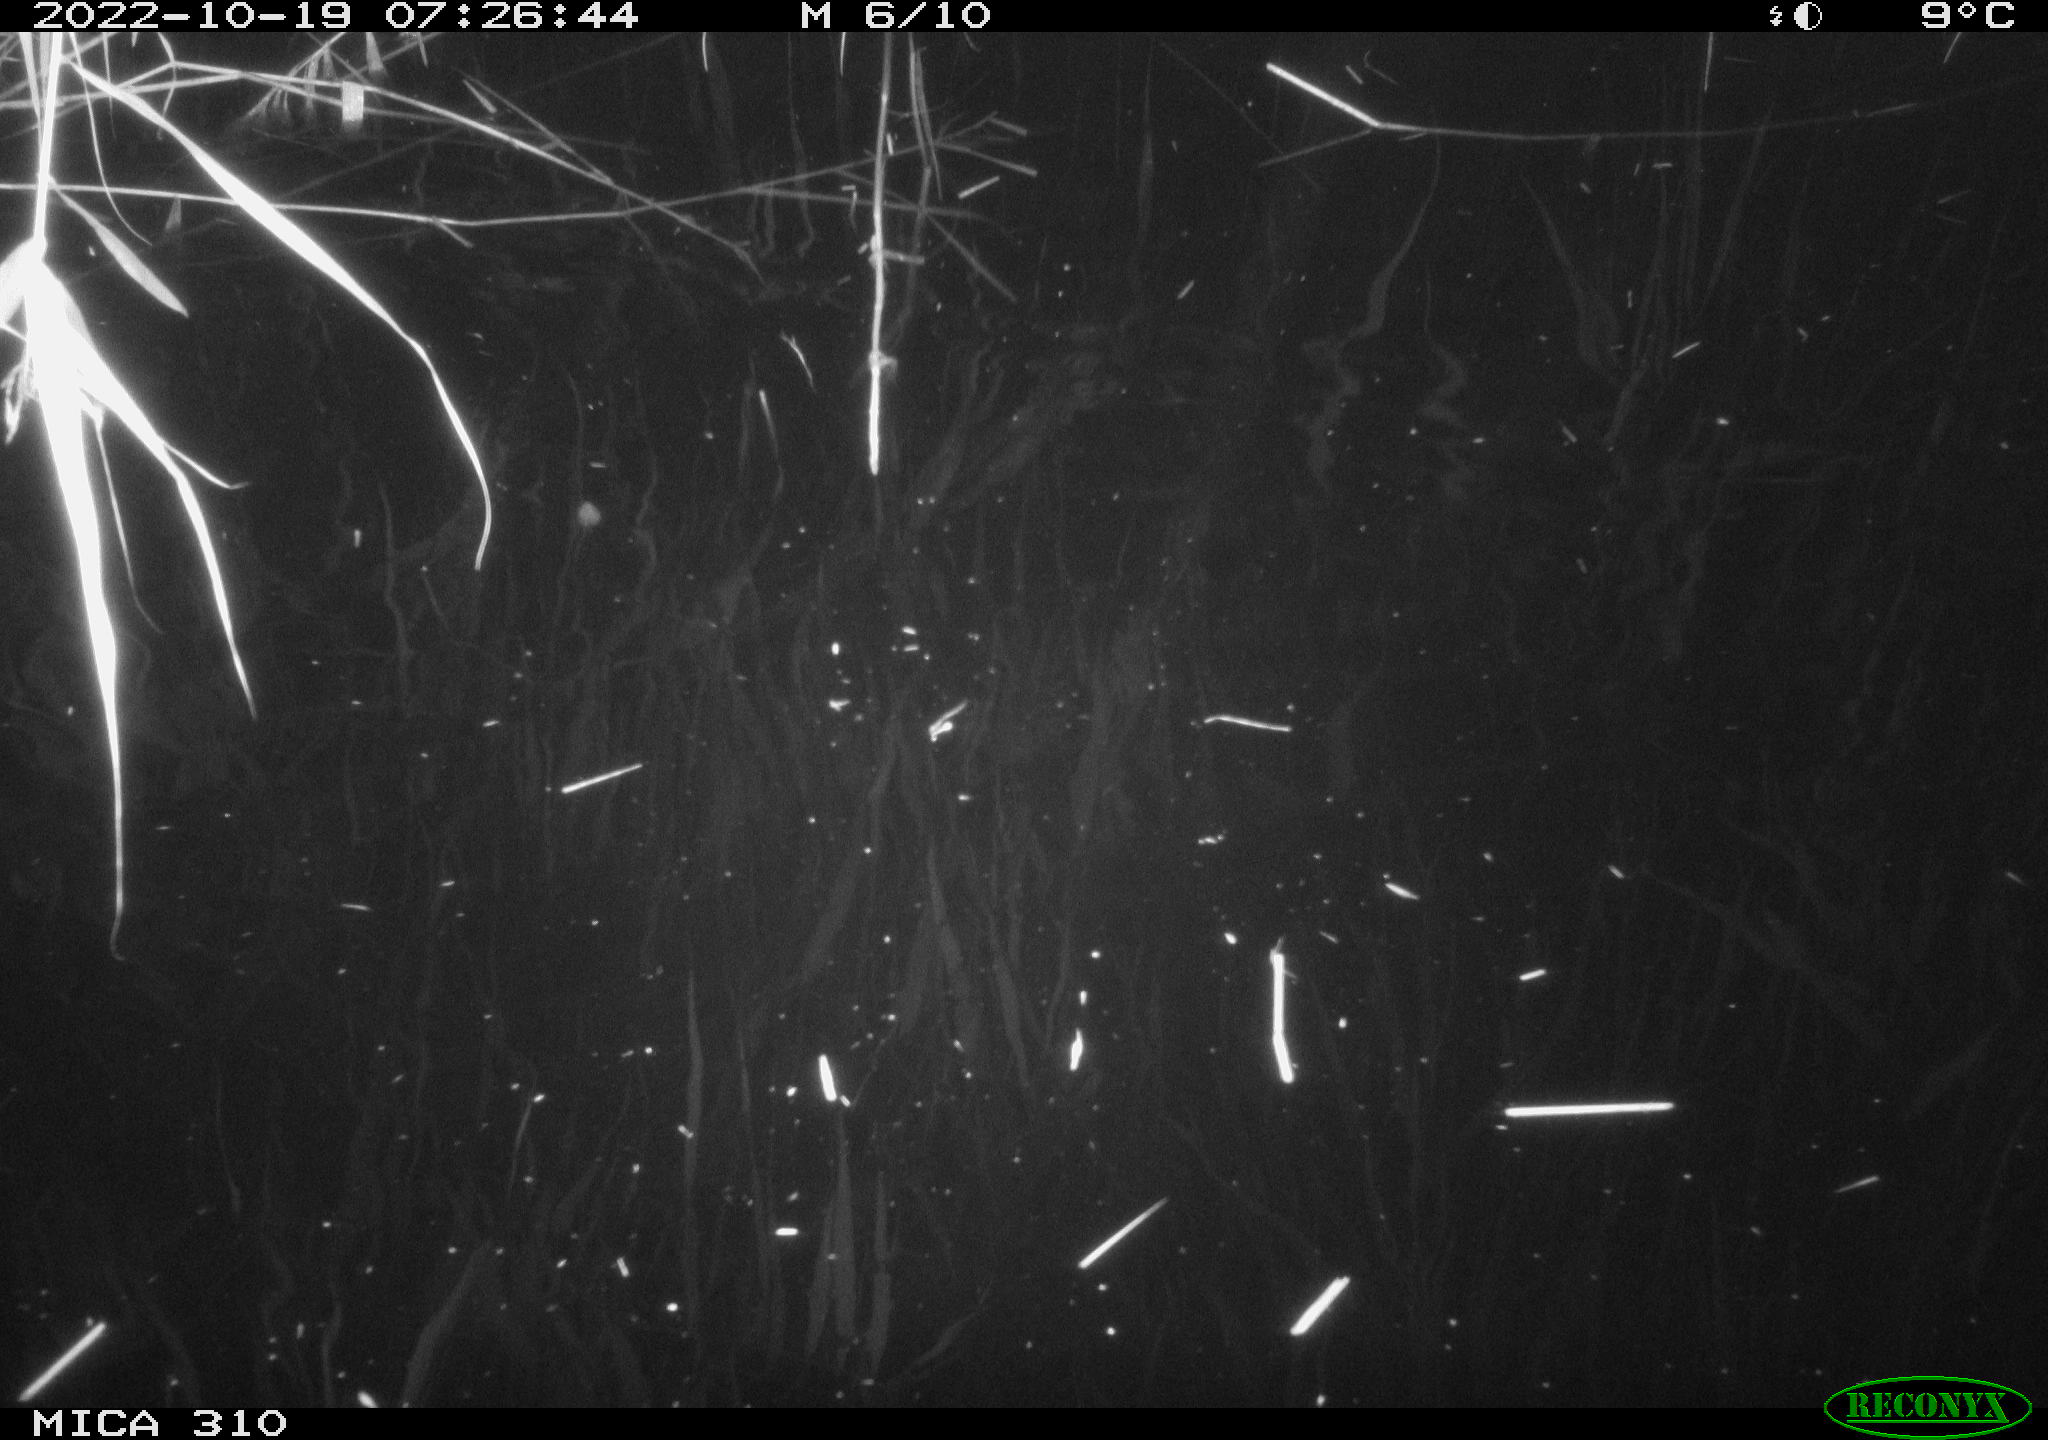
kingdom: Animalia
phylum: Chordata
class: Mammalia
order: Rodentia
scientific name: Rodentia
